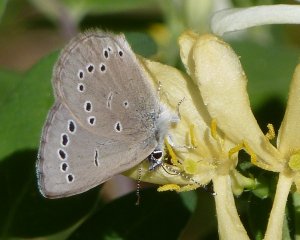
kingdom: Animalia
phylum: Arthropoda
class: Insecta
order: Lepidoptera
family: Lycaenidae
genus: Glaucopsyche
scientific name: Glaucopsyche lygdamus
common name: Silvery Blue
